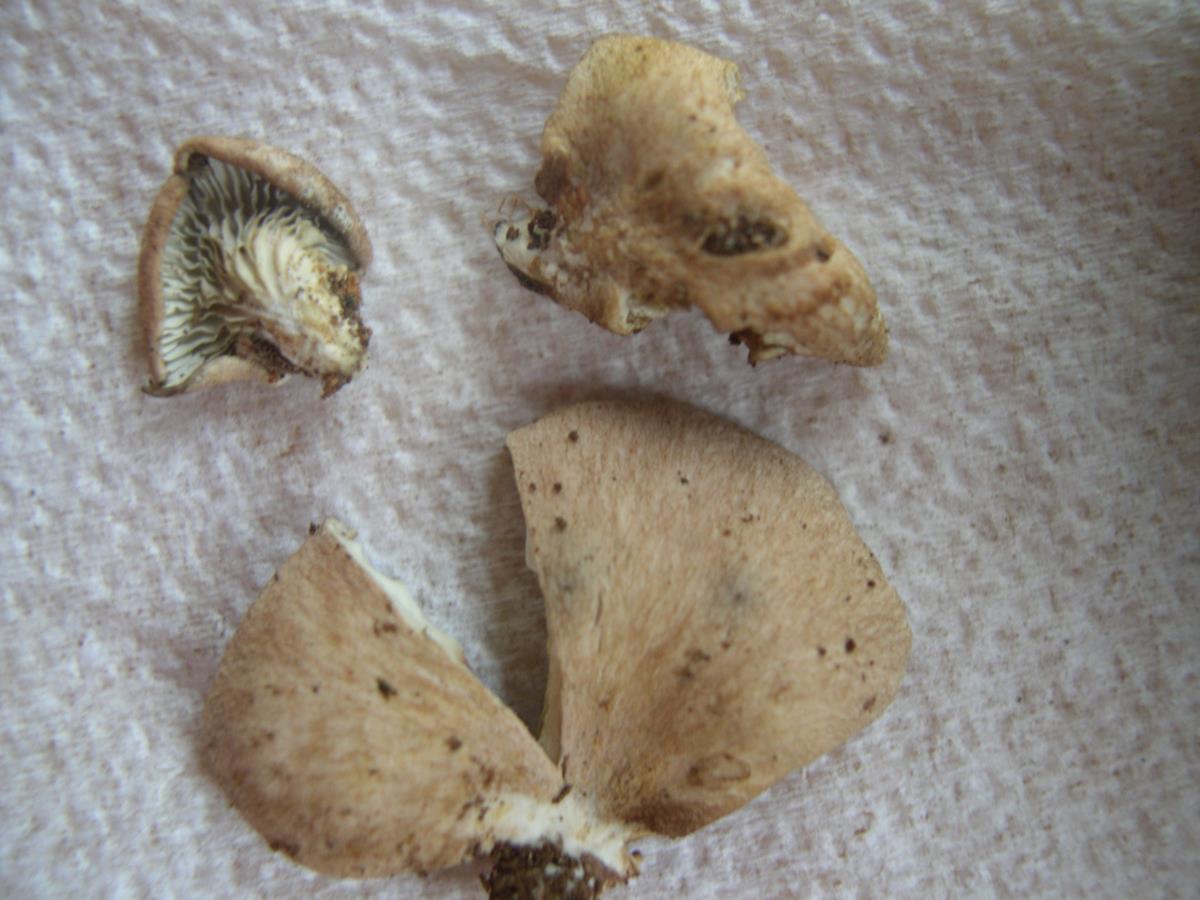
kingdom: Fungi
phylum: Basidiomycota
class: Agaricomycetes
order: Agaricales
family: Pleurotaceae
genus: Pleurotus
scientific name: Pleurotus
